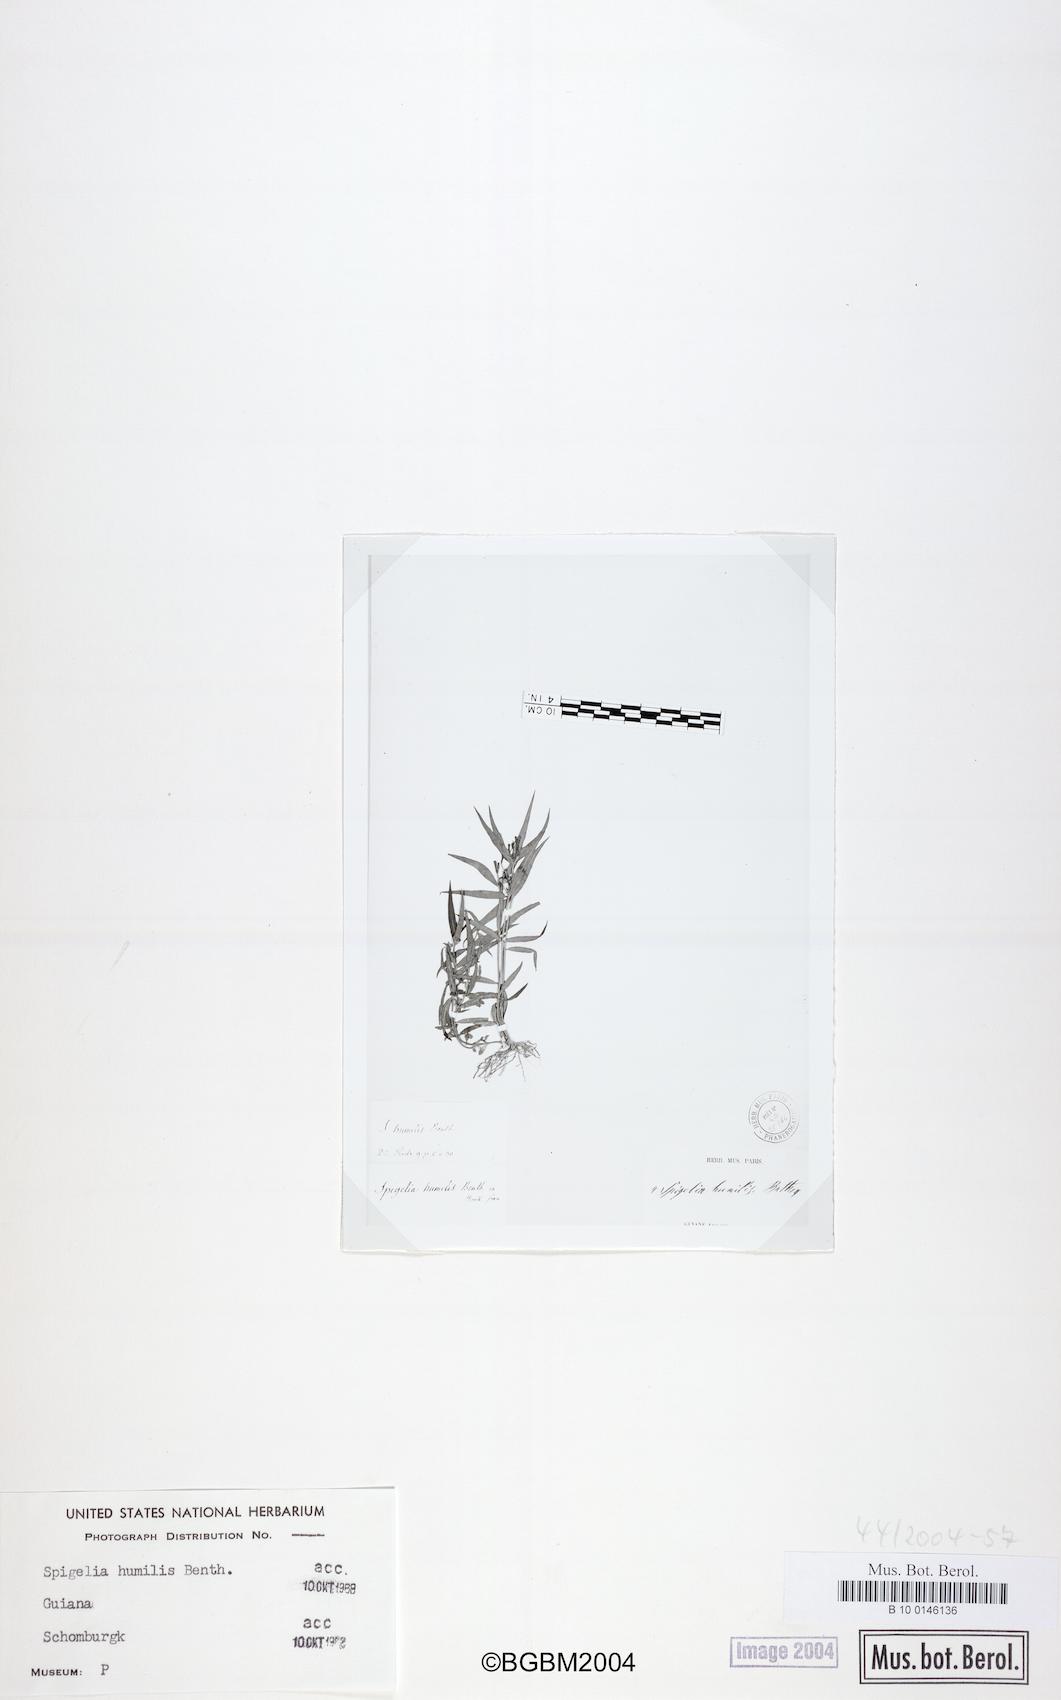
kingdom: Plantae
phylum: Tracheophyta
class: Magnoliopsida
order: Gentianales
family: Loganiaceae
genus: Spigelia
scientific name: Spigelia guianensis
